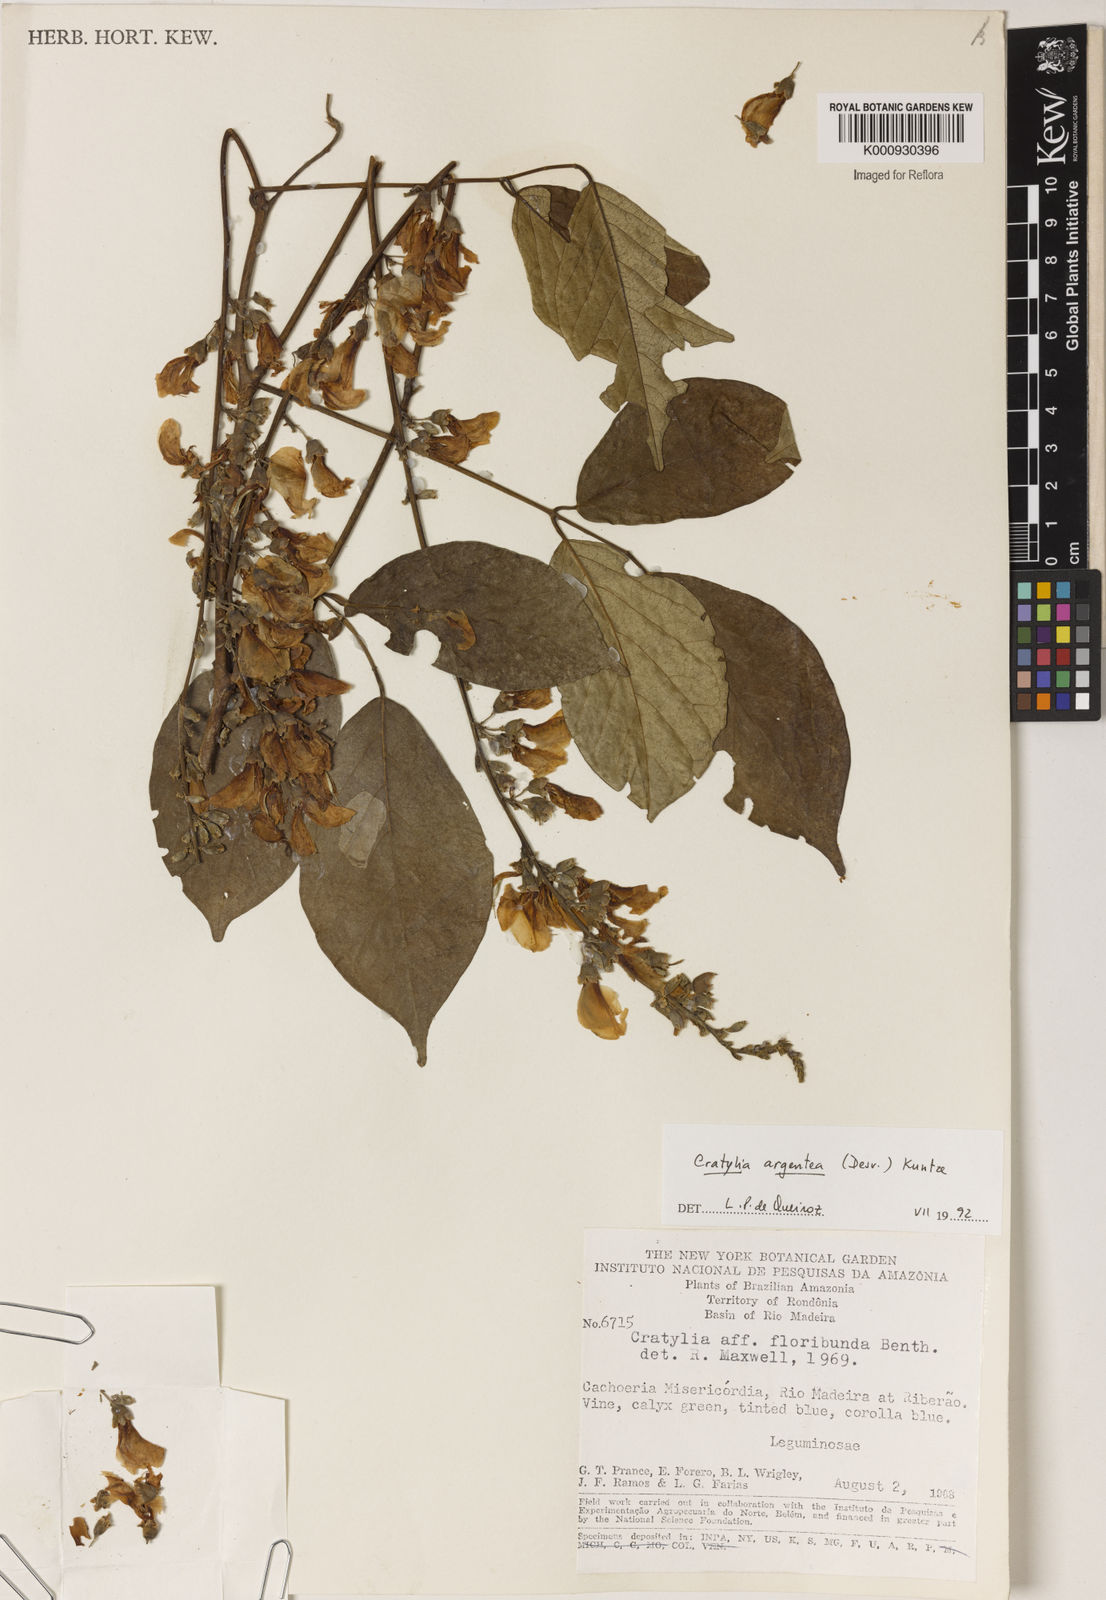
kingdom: Plantae
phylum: Tracheophyta
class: Magnoliopsida
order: Fabales
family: Fabaceae
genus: Cratylia
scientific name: Cratylia argentea
